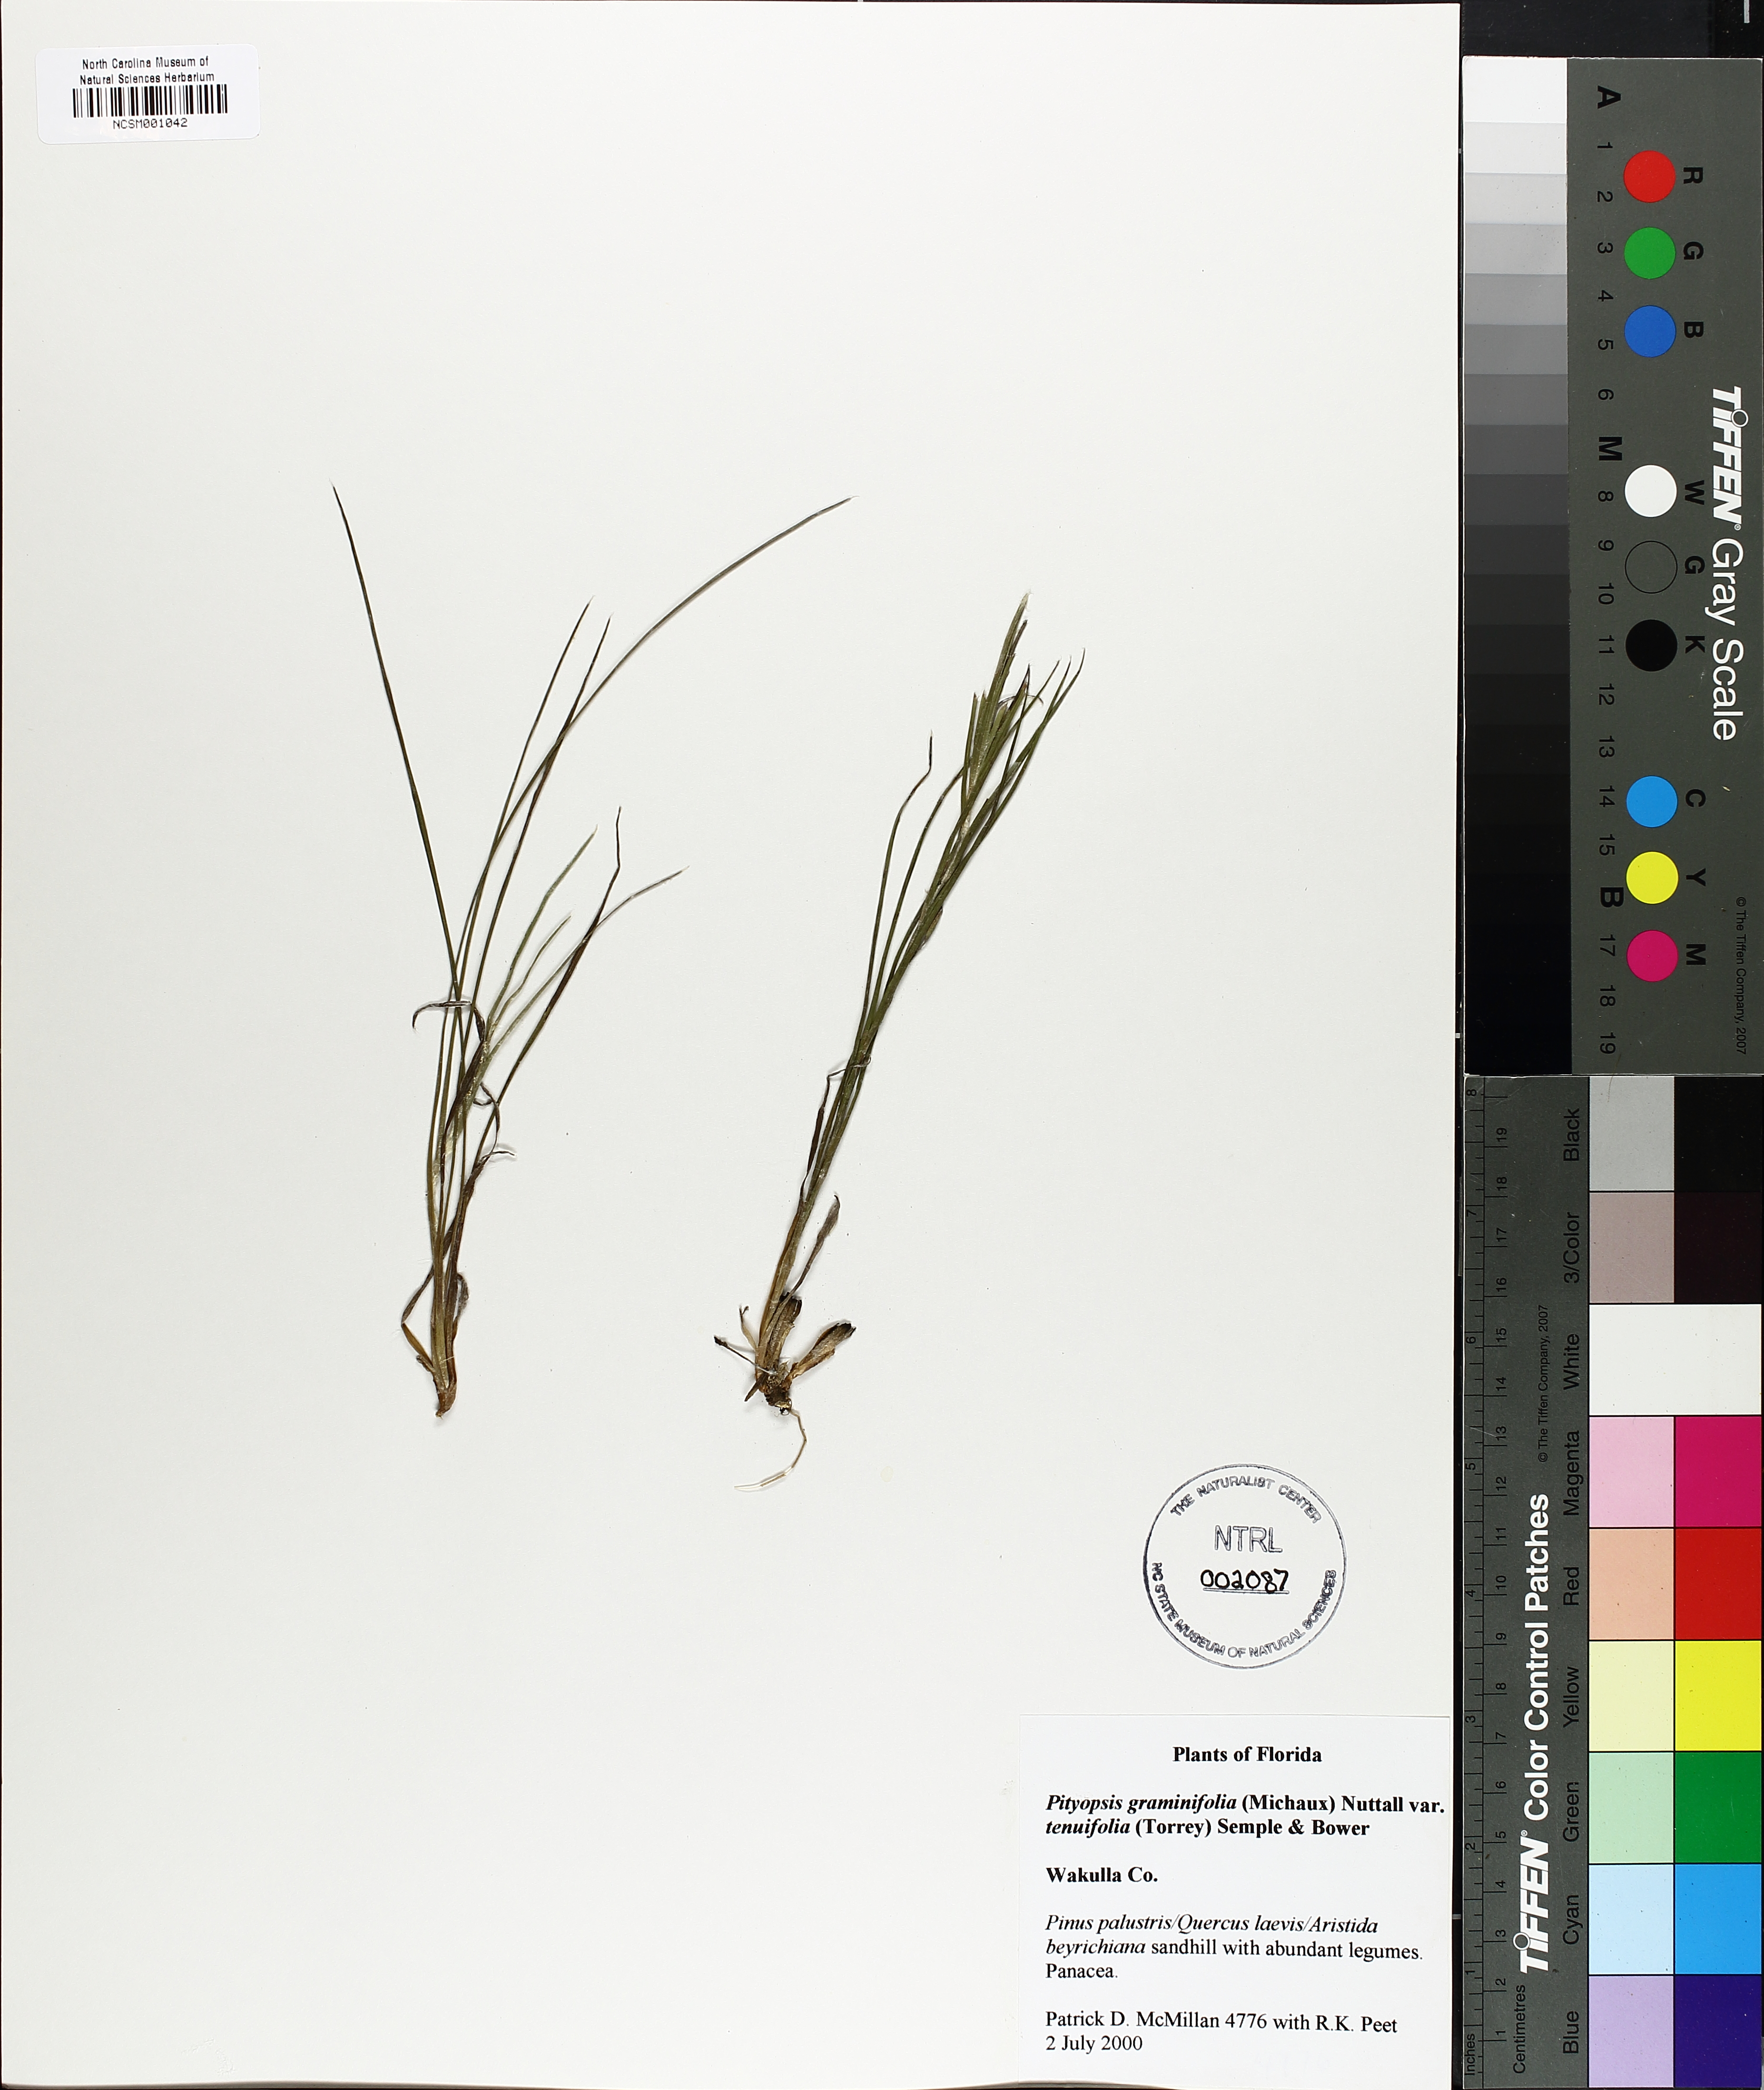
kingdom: Plantae
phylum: Tracheophyta
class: Magnoliopsida
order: Asterales
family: Asteraceae
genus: Pityopsis
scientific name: Pityopsis tenuifolia
